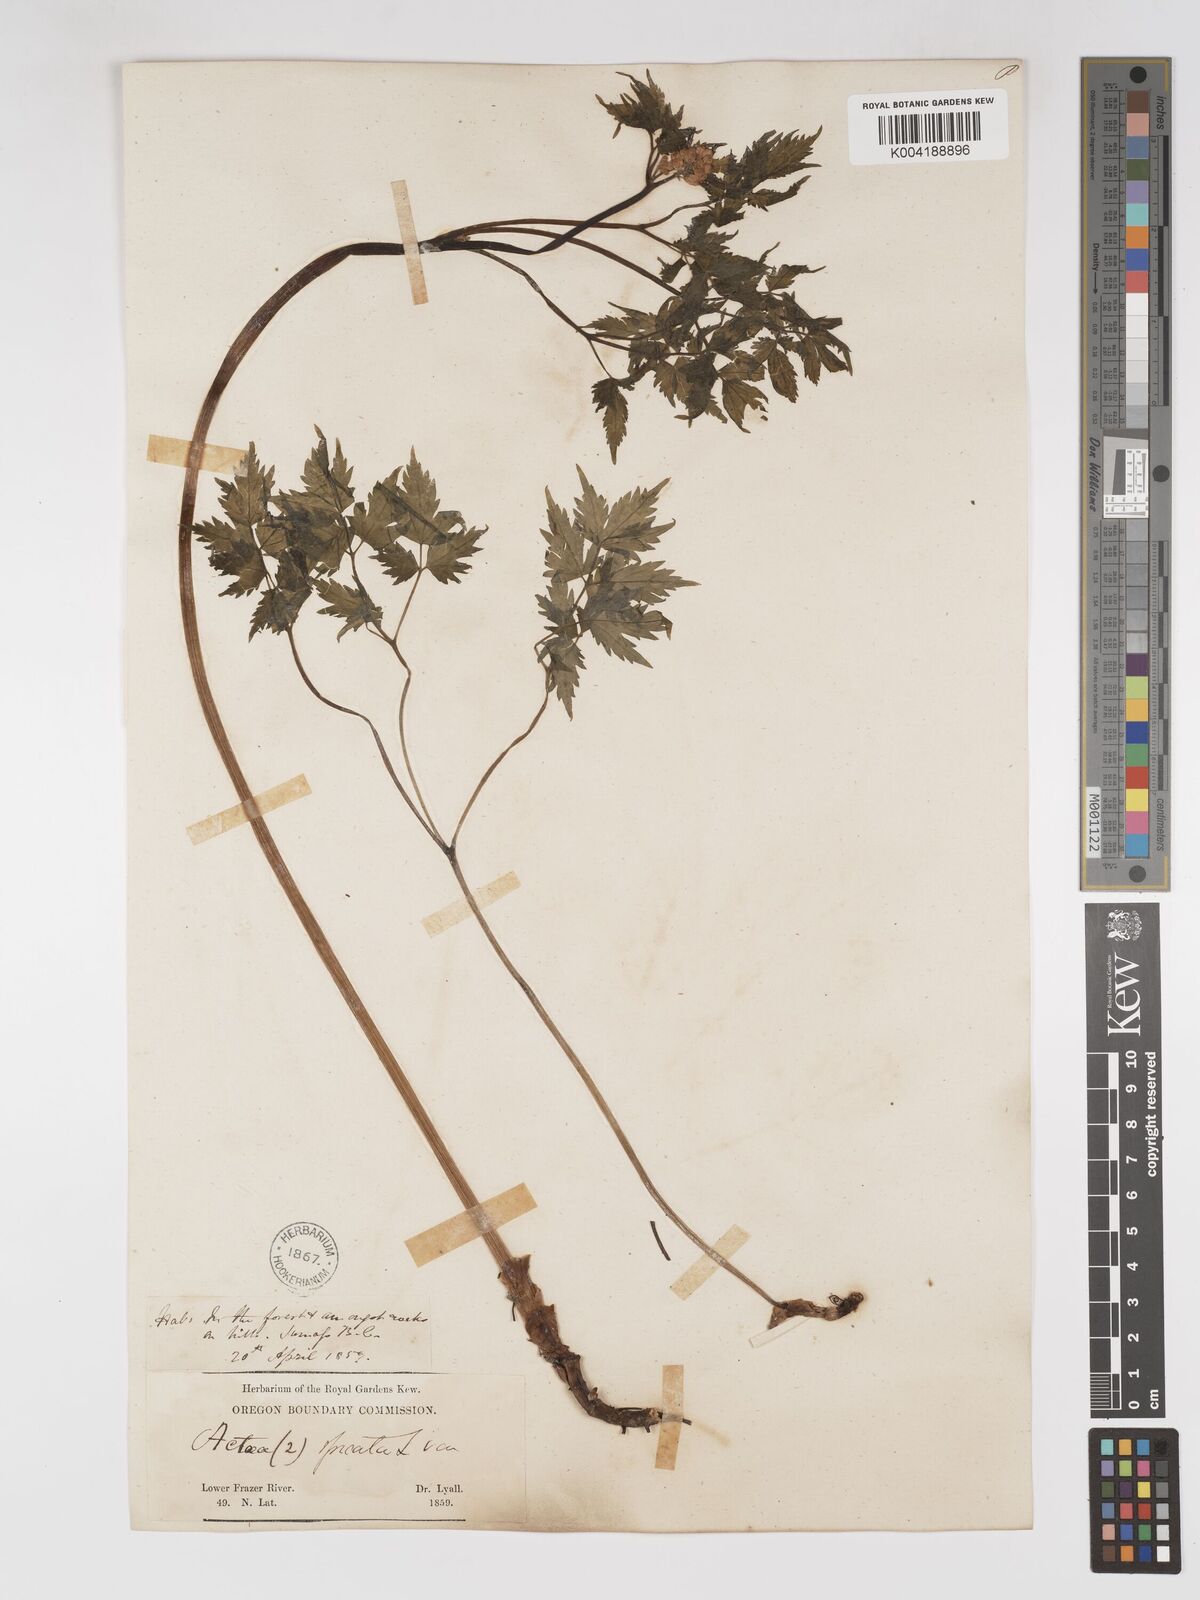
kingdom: Plantae
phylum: Tracheophyta
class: Magnoliopsida
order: Ranunculales
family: Ranunculaceae
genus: Actaea
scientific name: Actaea spicata
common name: Baneberry
